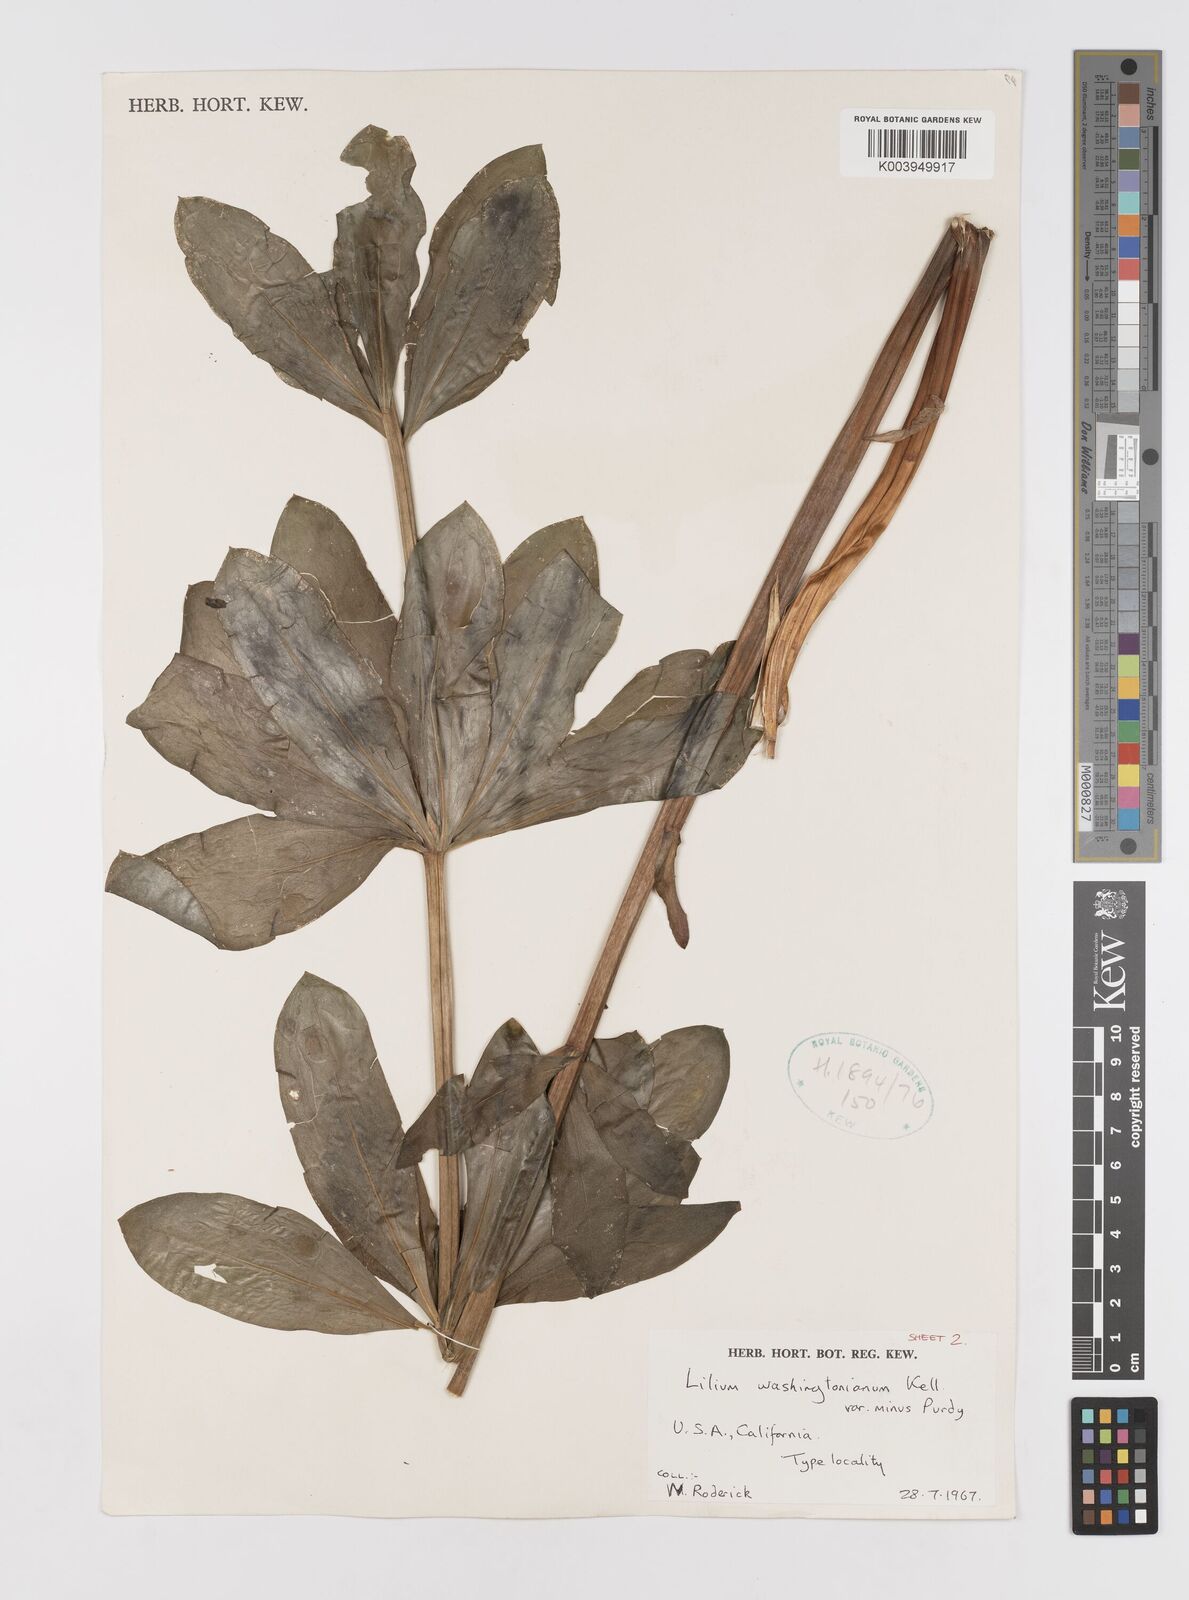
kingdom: Plantae
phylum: Tracheophyta
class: Liliopsida
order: Liliales
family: Liliaceae
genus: Lilium
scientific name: Lilium washingtonianum
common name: Washington lily
